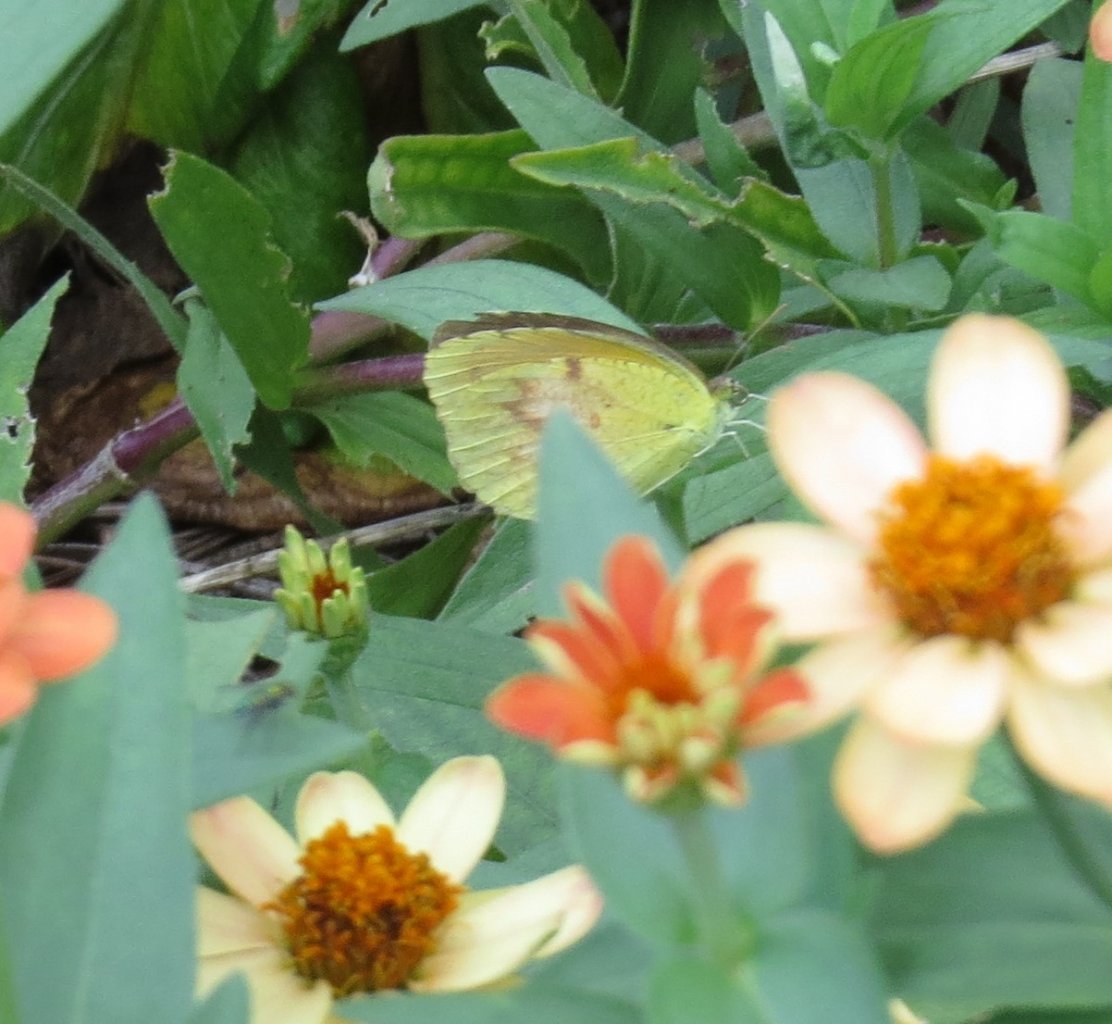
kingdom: Animalia
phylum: Arthropoda
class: Insecta
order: Lepidoptera
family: Pieridae
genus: Abaeis
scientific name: Abaeis nicippe
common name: Sleepy Orange
